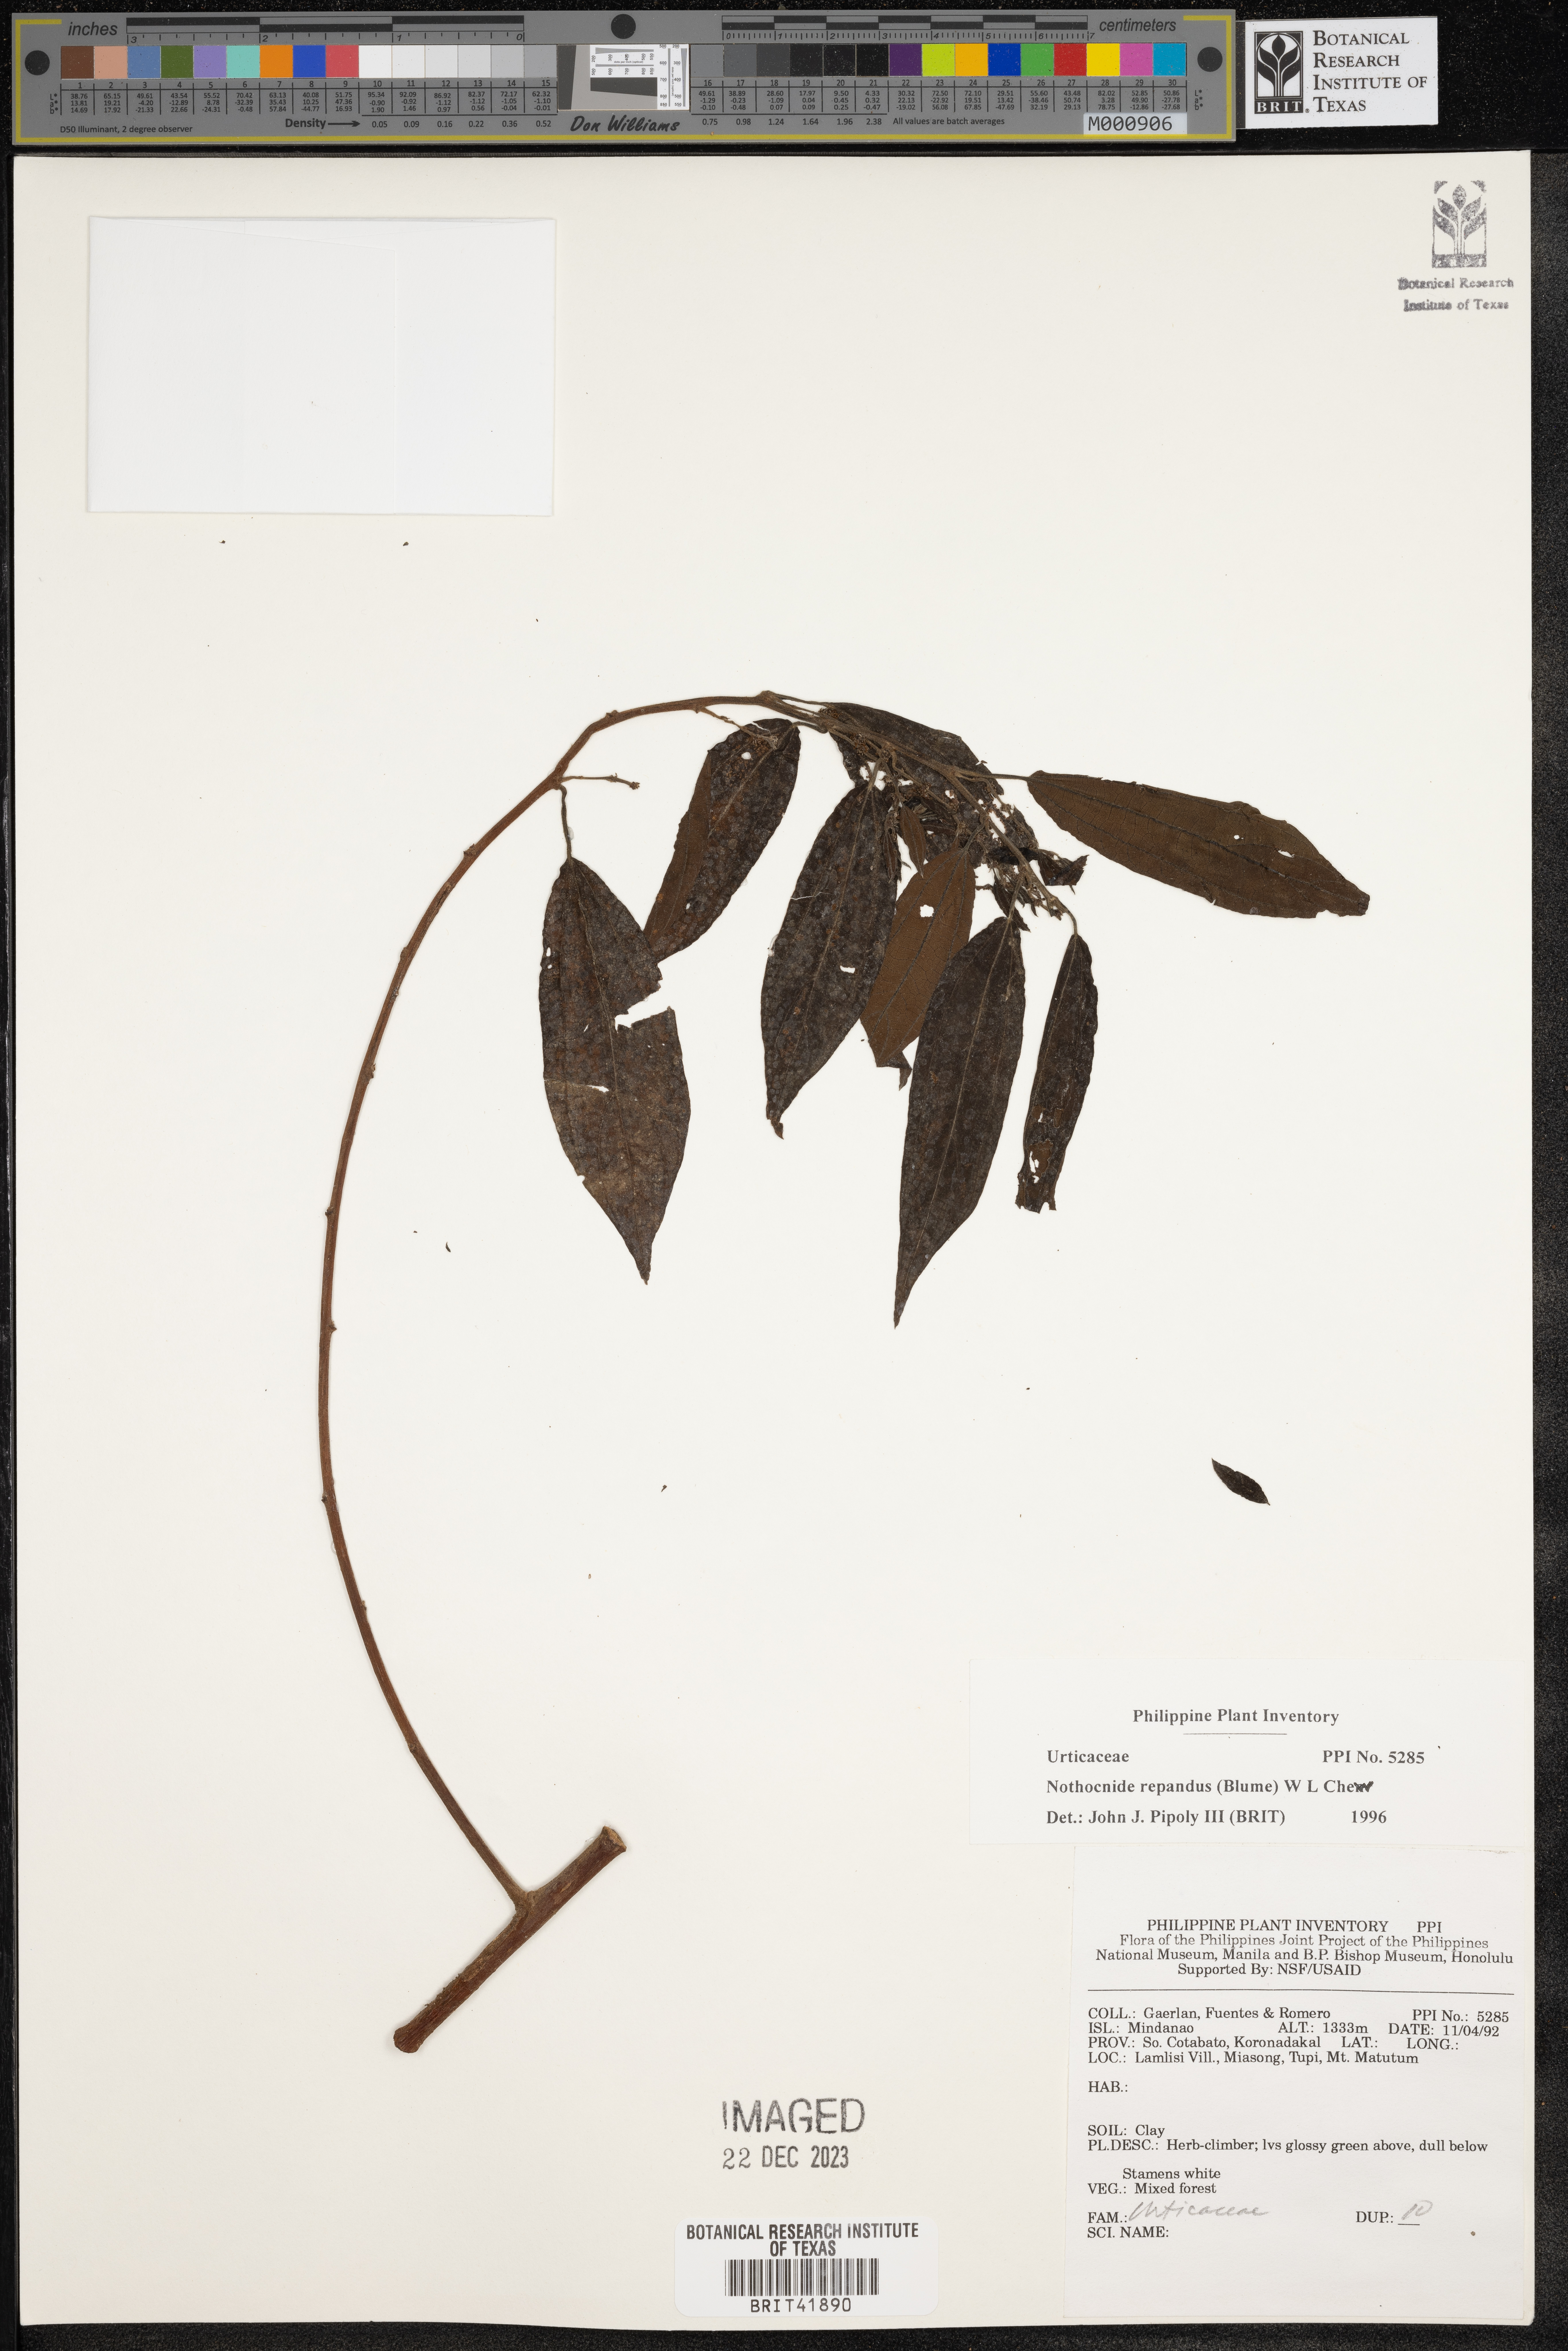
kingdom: Plantae
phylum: Tracheophyta
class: Magnoliopsida
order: Rosales
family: Urticaceae
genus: Nothocnide
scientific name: Nothocnide repanda
